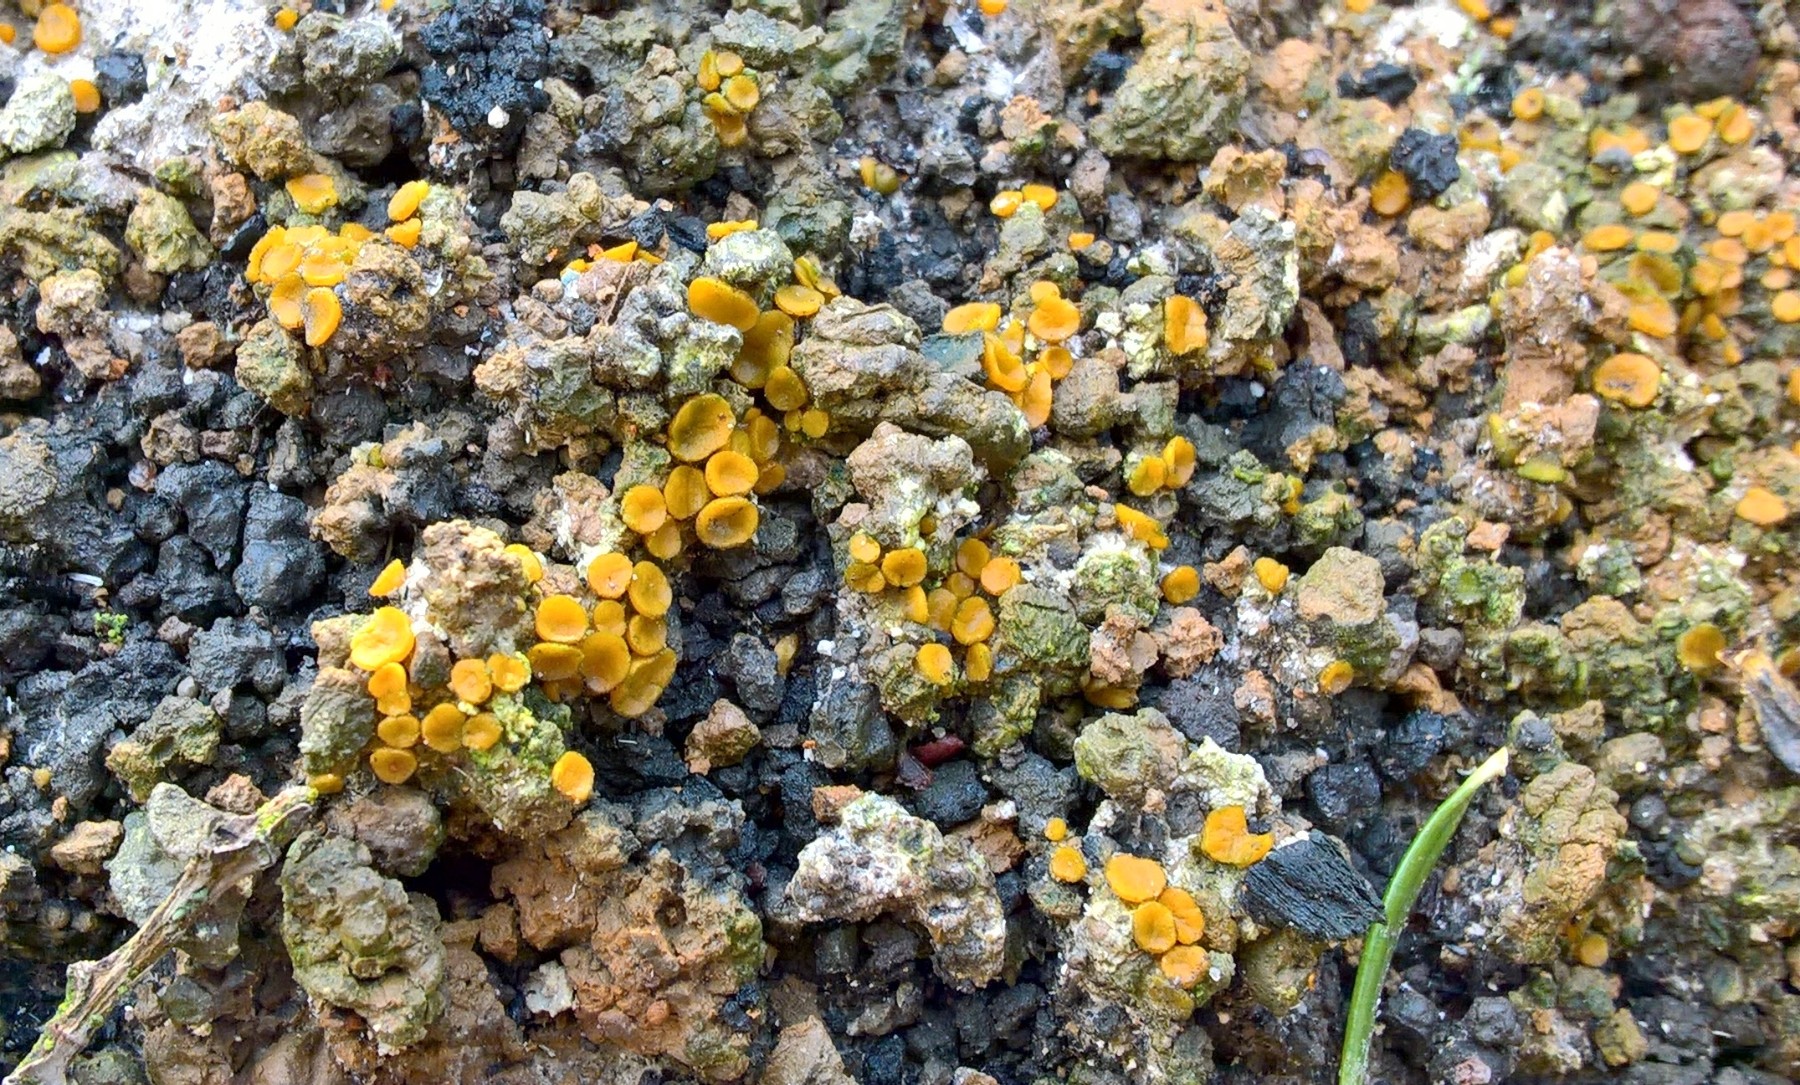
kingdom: Fungi
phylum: Ascomycota
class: Pezizomycetes
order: Pezizales
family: Pyronemataceae
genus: Anthracobia
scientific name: Anthracobia
